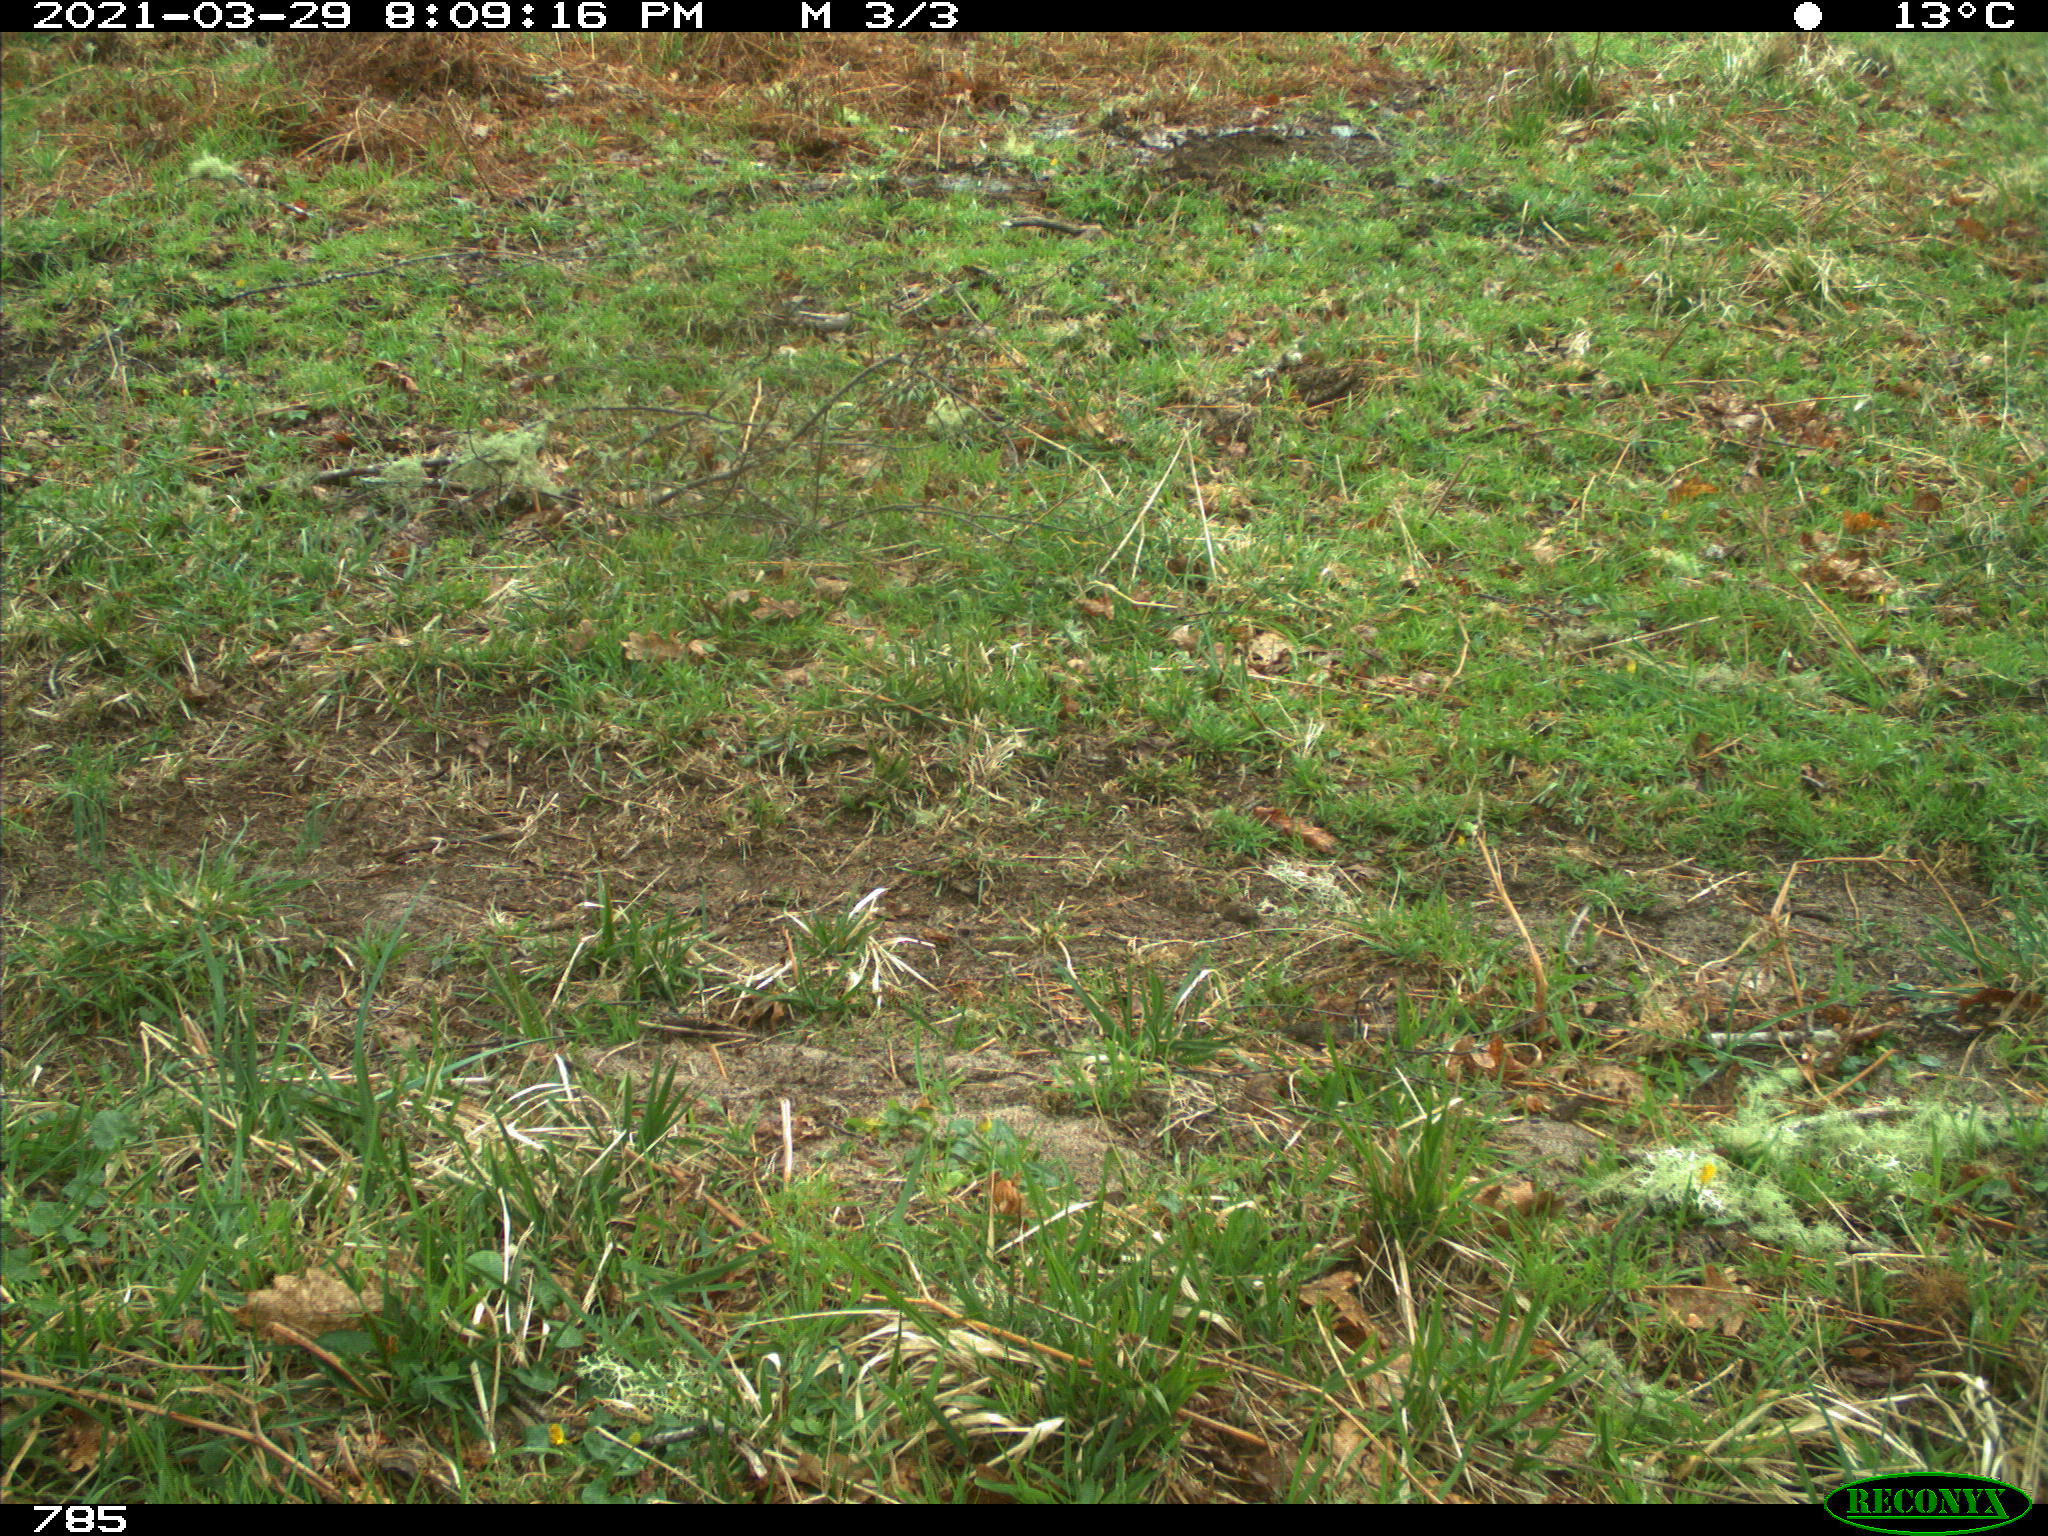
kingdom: Animalia
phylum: Chordata
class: Mammalia
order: Perissodactyla
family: Equidae
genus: Equus
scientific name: Equus caballus
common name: Horse
